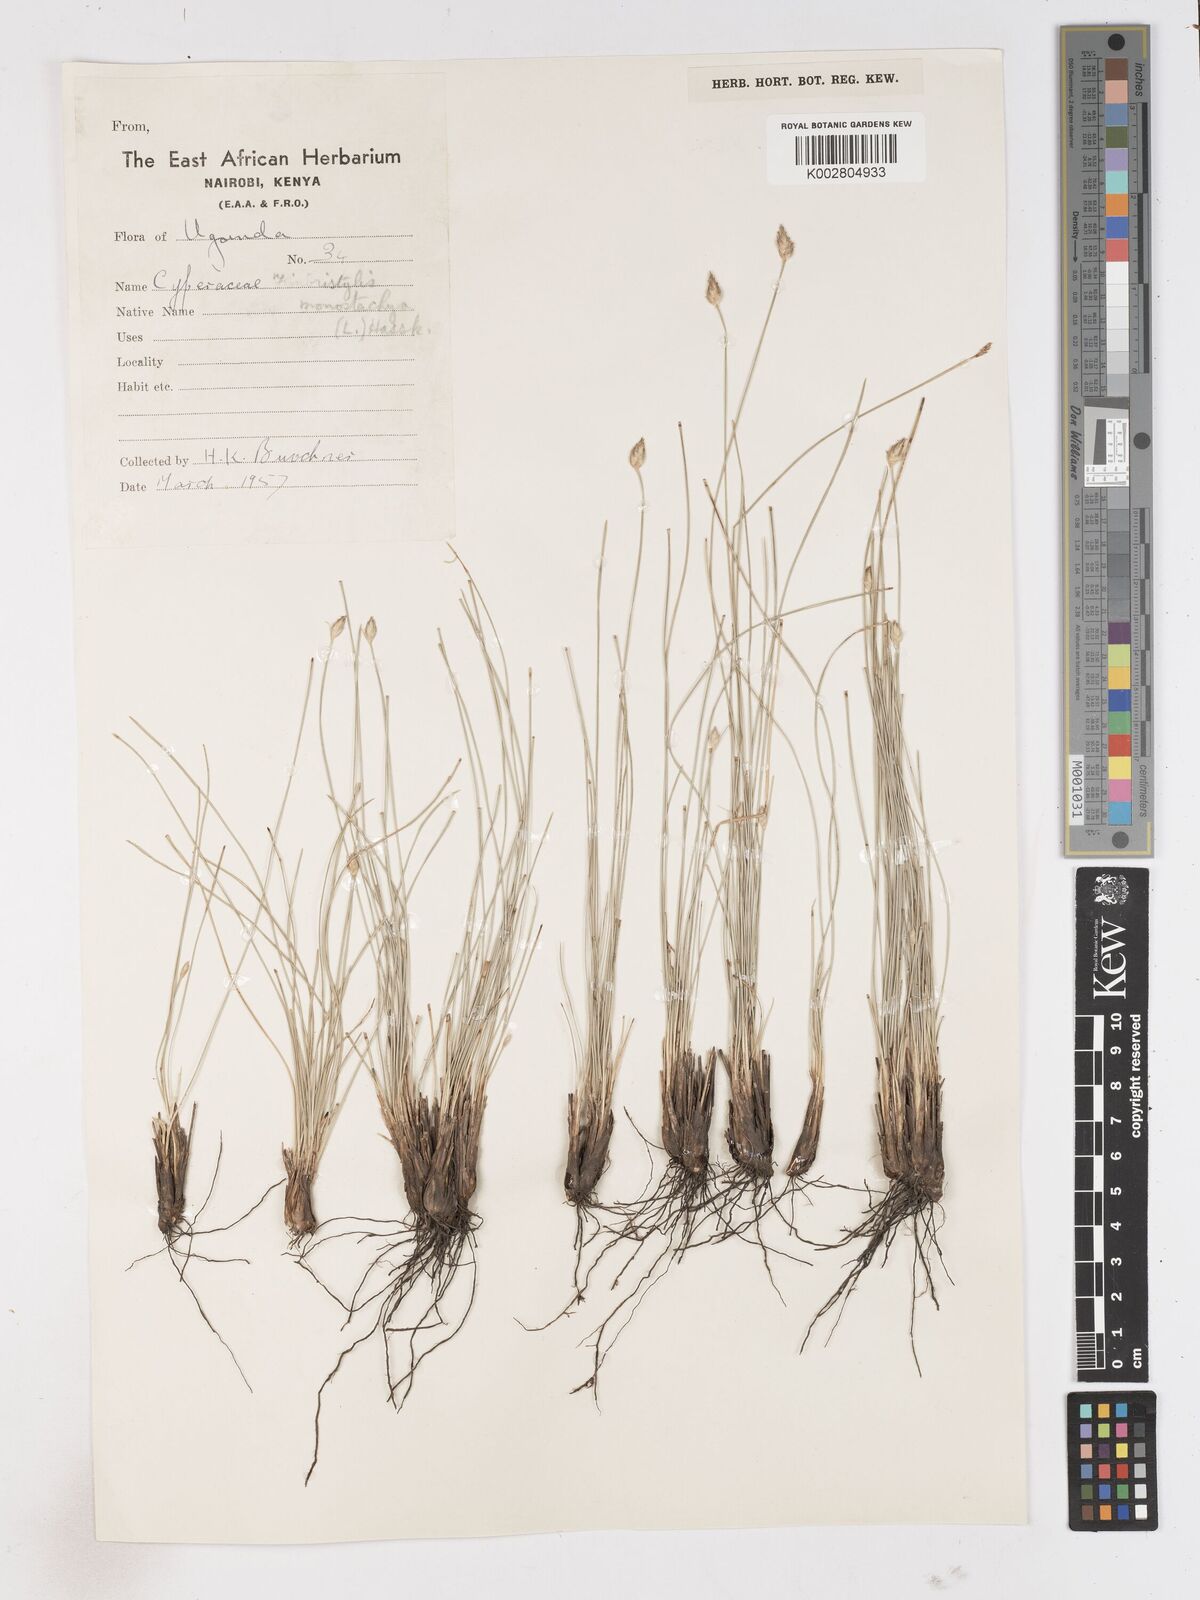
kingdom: Plantae
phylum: Tracheophyta
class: Liliopsida
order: Poales
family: Cyperaceae
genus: Abildgaardia
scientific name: Abildgaardia ovata
